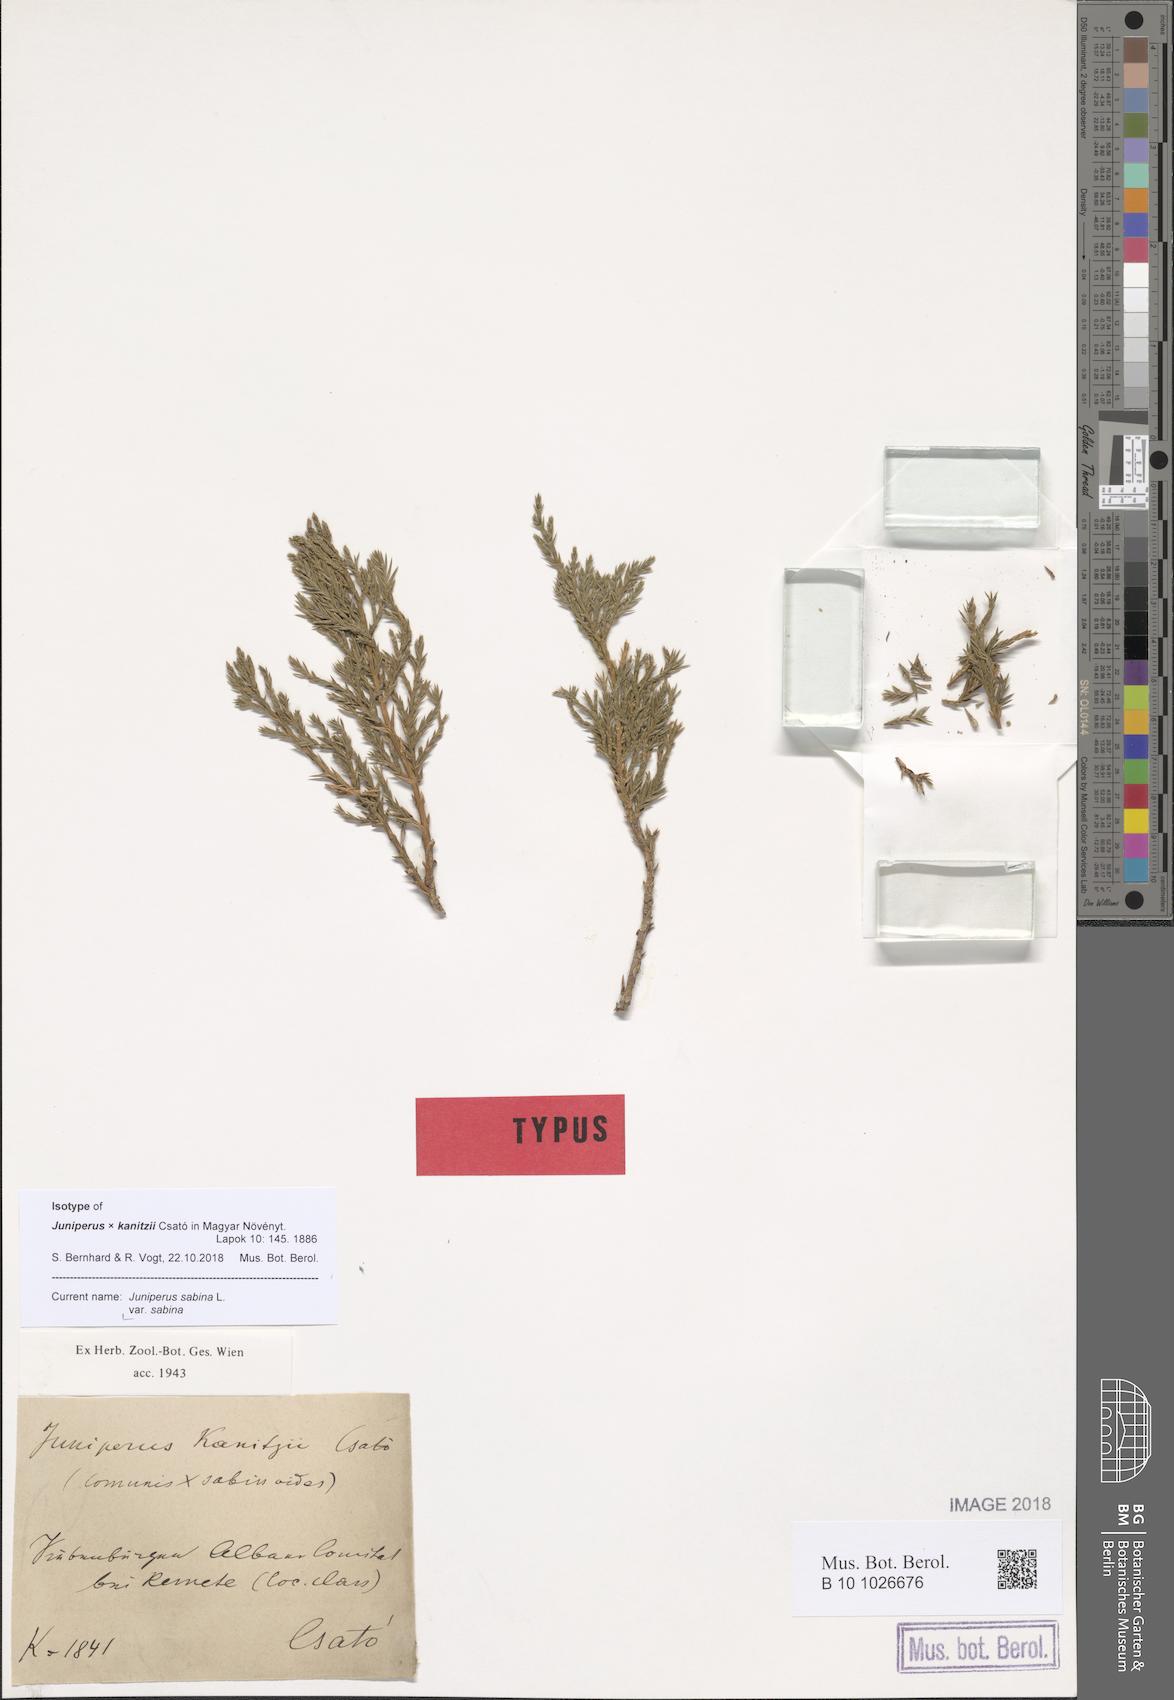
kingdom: Plantae
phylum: Tracheophyta
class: Pinopsida
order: Pinales
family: Cupressaceae
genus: Juniperus
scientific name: Juniperus sabina
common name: Savin
